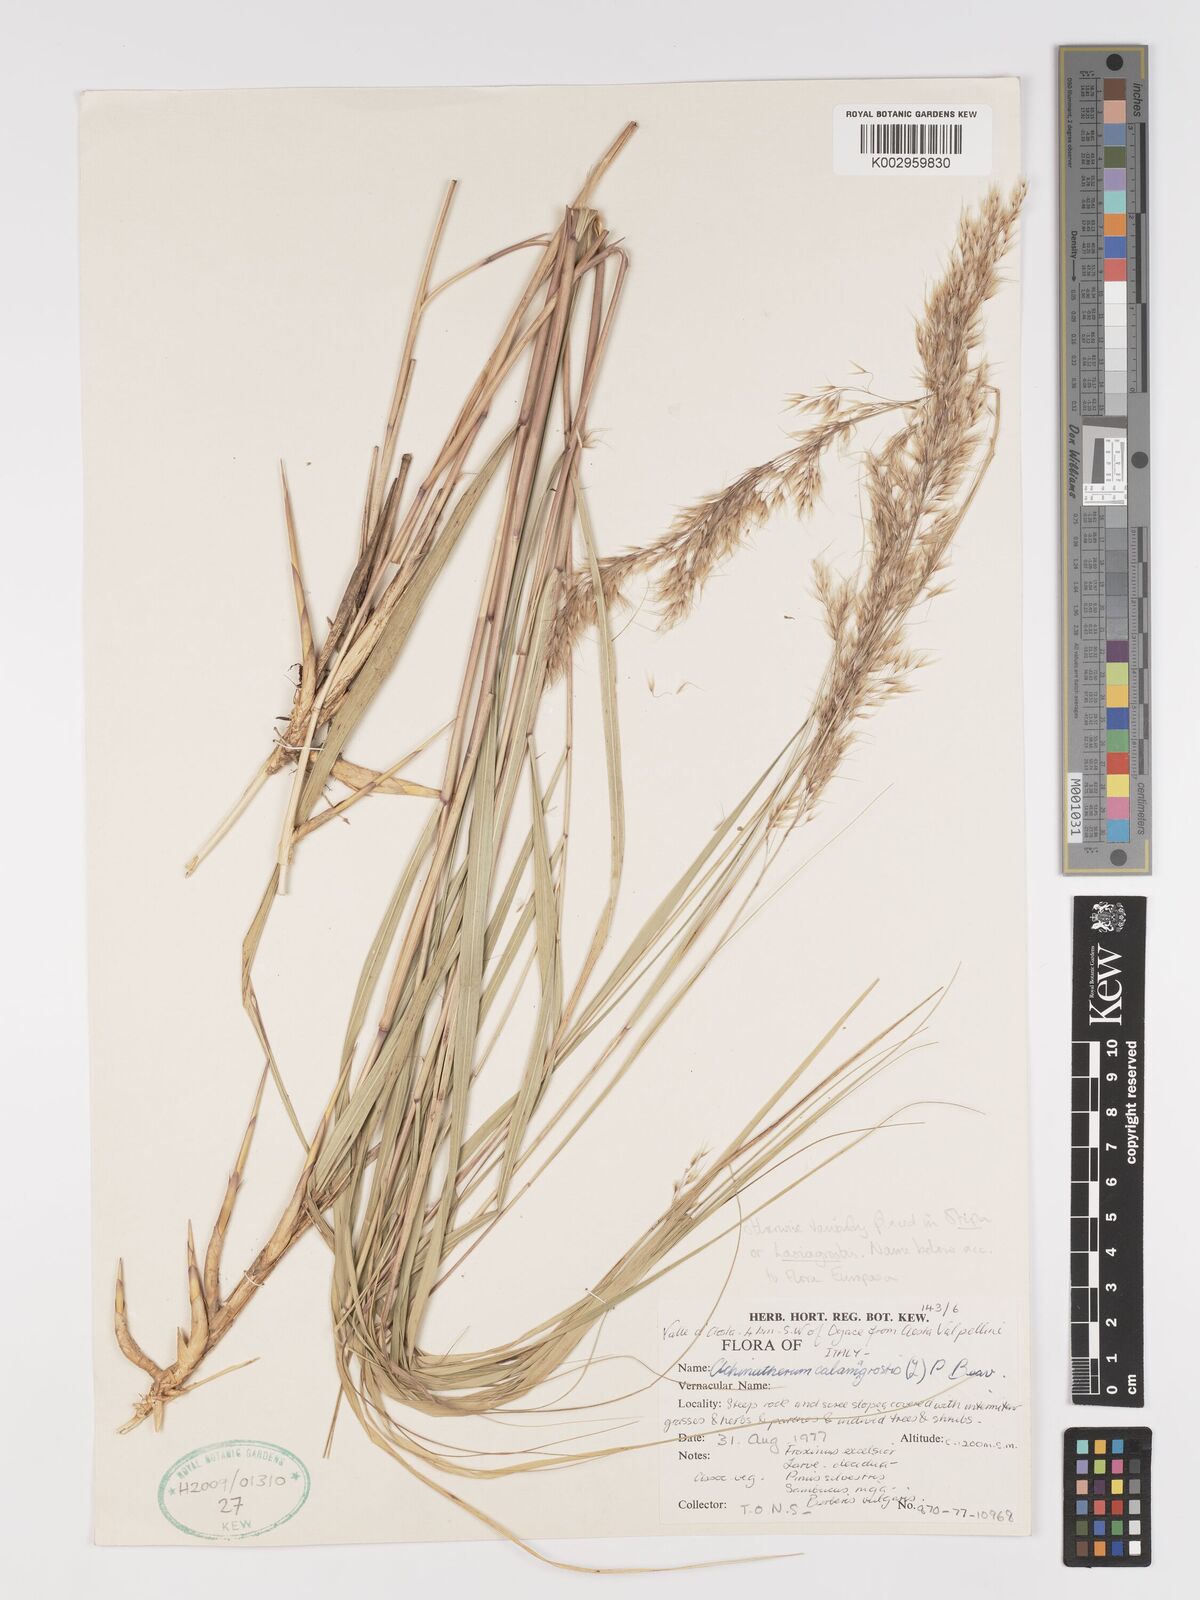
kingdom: Plantae
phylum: Tracheophyta
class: Liliopsida
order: Poales
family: Poaceae
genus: Achnatherum
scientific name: Achnatherum calamagrostis
